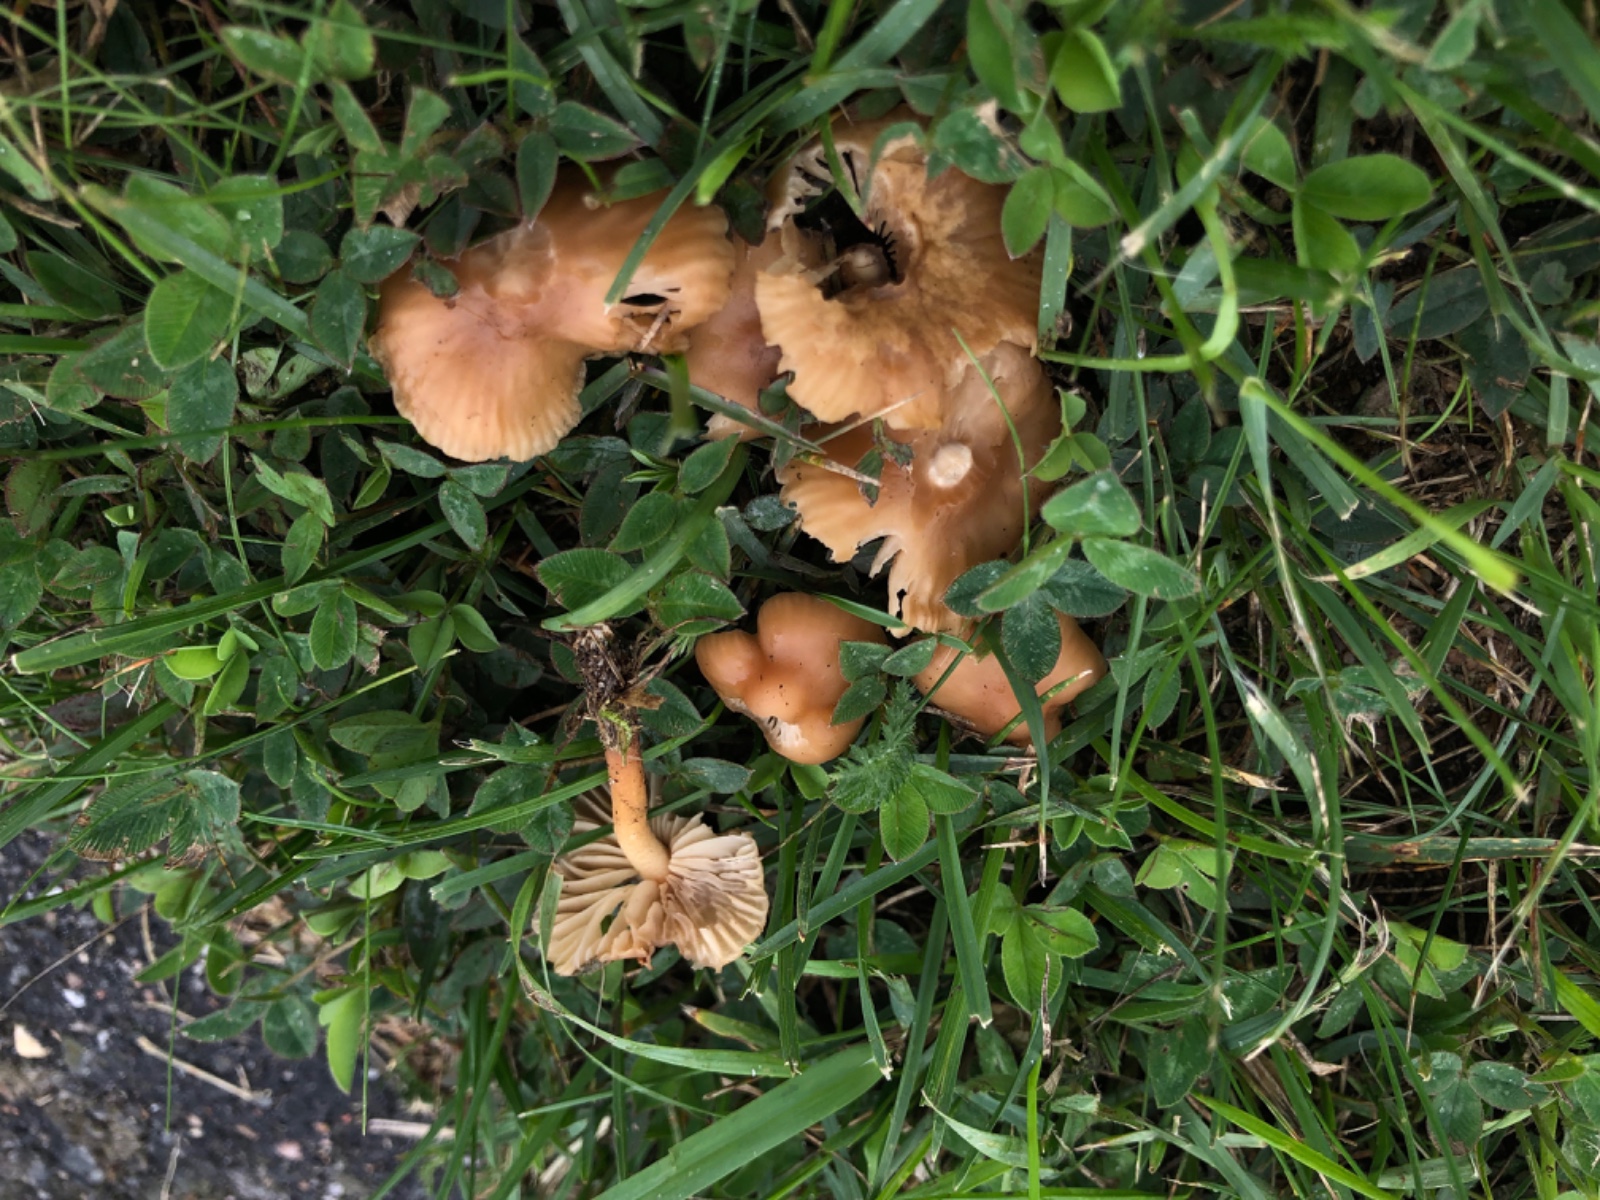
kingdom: Fungi
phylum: Basidiomycota
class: Agaricomycetes
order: Agaricales
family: Marasmiaceae
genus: Marasmius
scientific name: Marasmius oreades
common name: elledans-bruskhat
